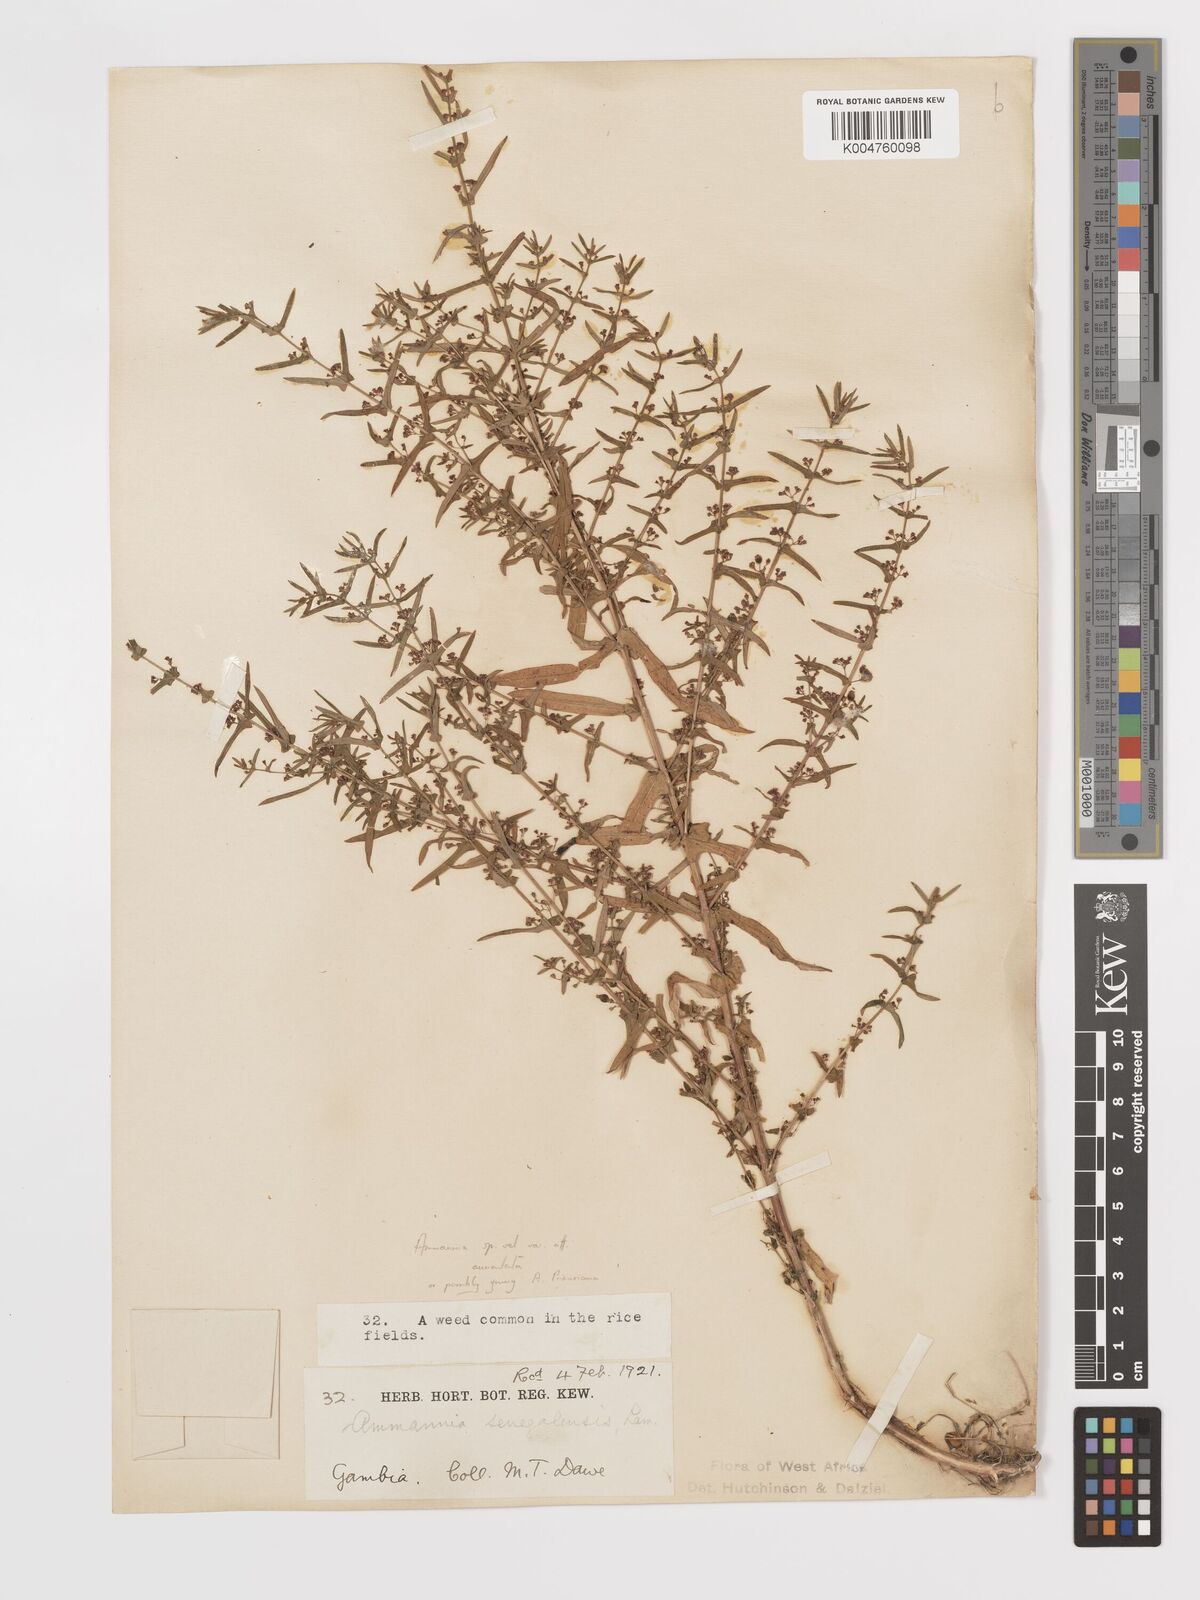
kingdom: Plantae
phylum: Tracheophyta
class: Magnoliopsida
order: Myrtales
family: Lythraceae
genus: Ammannia
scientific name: Ammannia prieuriana
